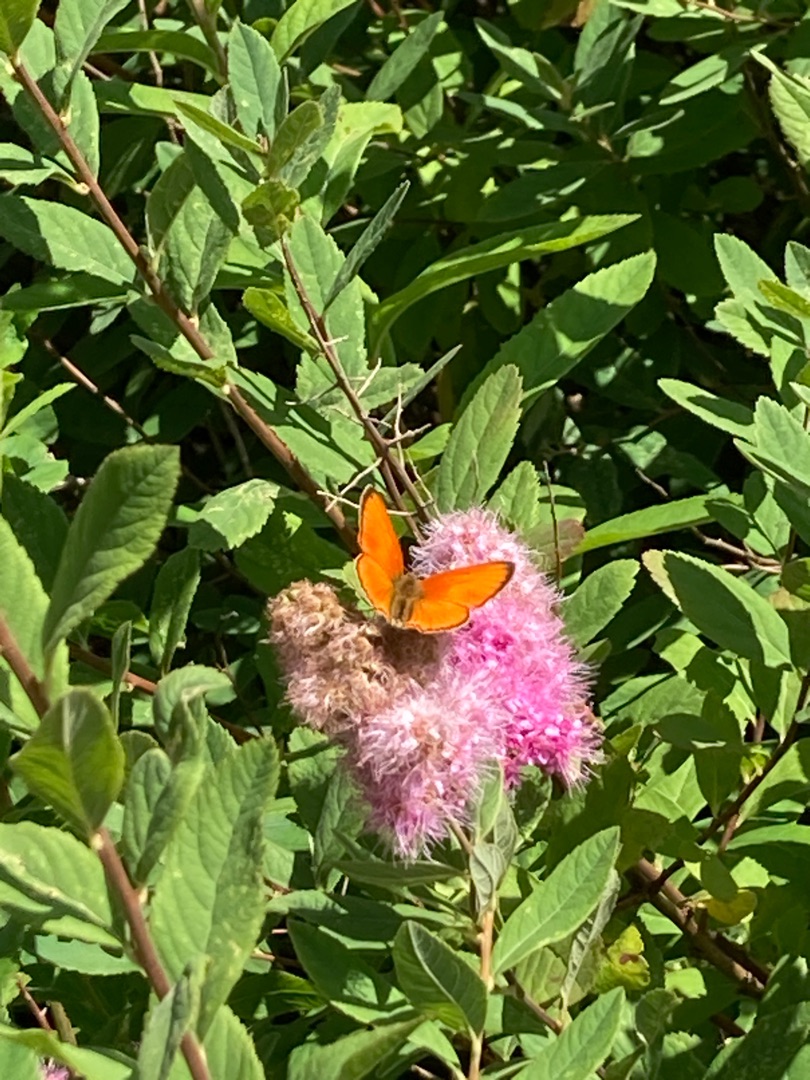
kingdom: Animalia
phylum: Arthropoda
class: Insecta
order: Lepidoptera
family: Lycaenidae
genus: Lycaena
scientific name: Lycaena virgaureae
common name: Dukatsommerfugl
